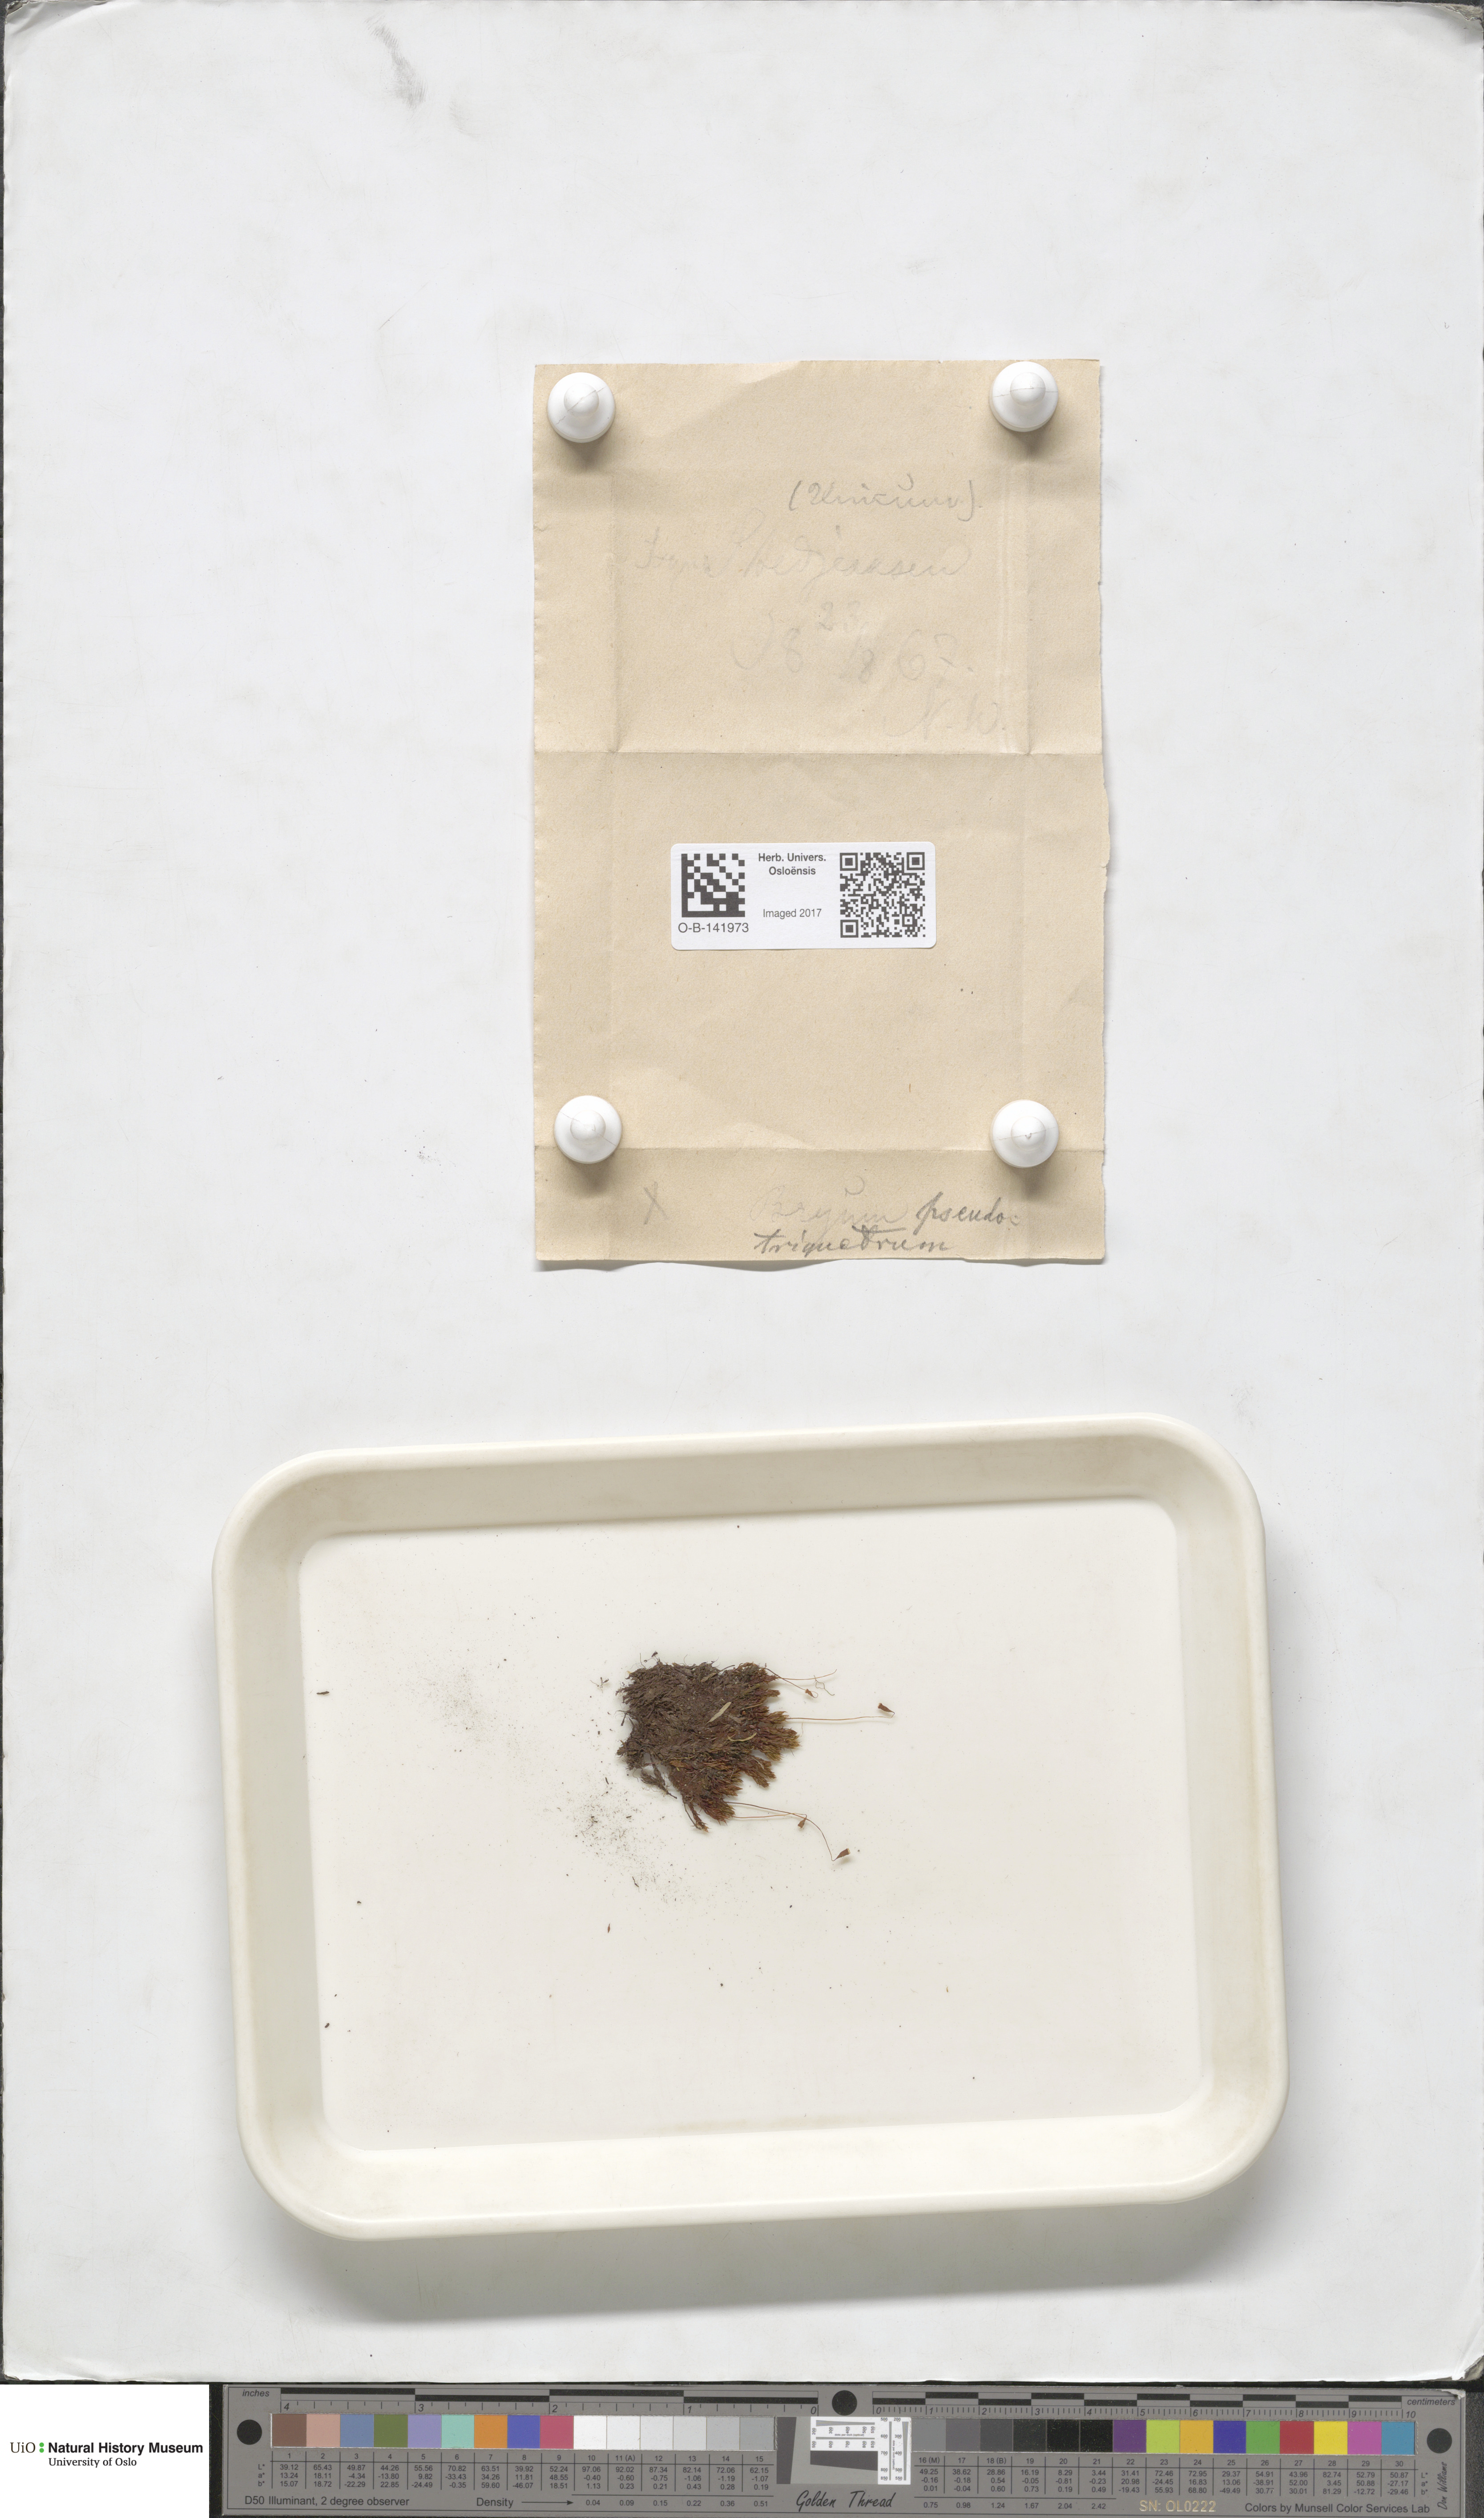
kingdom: Plantae
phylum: Bryophyta
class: Bryopsida
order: Bryales
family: Bryaceae
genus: Ptychostomum
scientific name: Ptychostomum pseudotriquetrum
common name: Long-leaved thread moss
